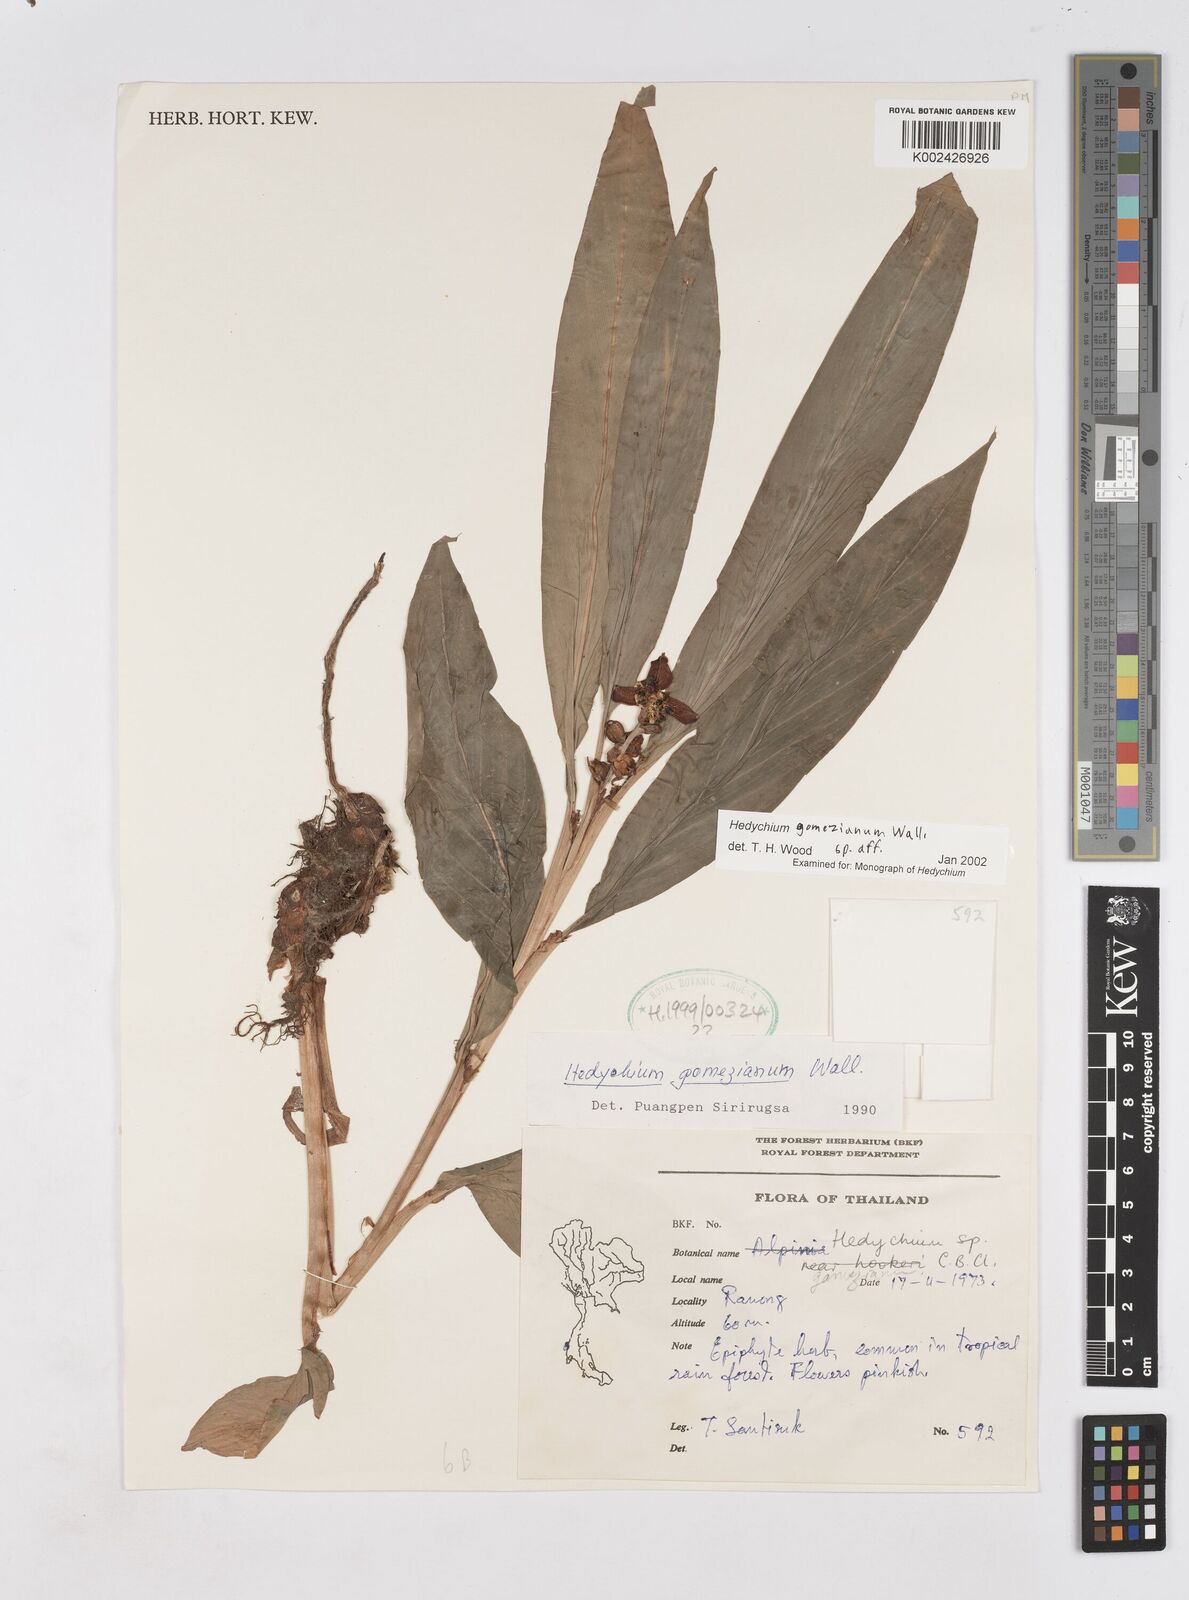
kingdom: Plantae
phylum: Tracheophyta
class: Liliopsida
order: Zingiberales
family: Zingiberaceae
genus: Hedychium
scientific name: Hedychium gomezianum
